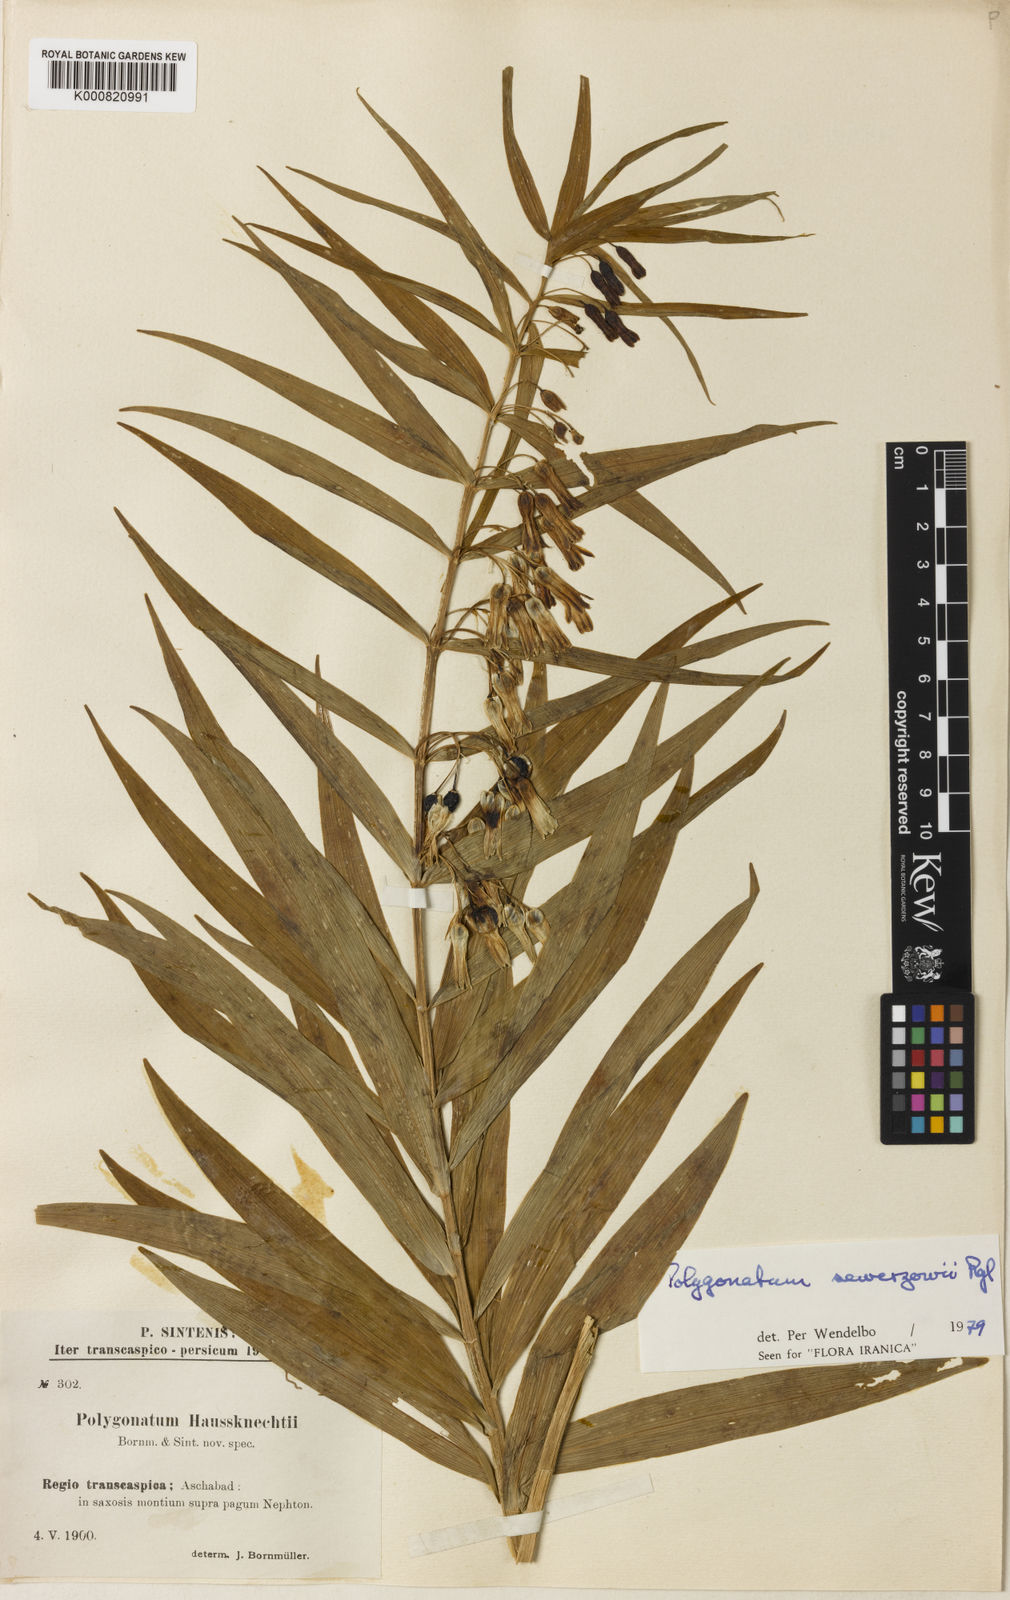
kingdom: Plantae
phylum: Tracheophyta
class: Liliopsida
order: Asparagales
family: Asparagaceae
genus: Polygonatum
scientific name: Polygonatum sewerzowii
